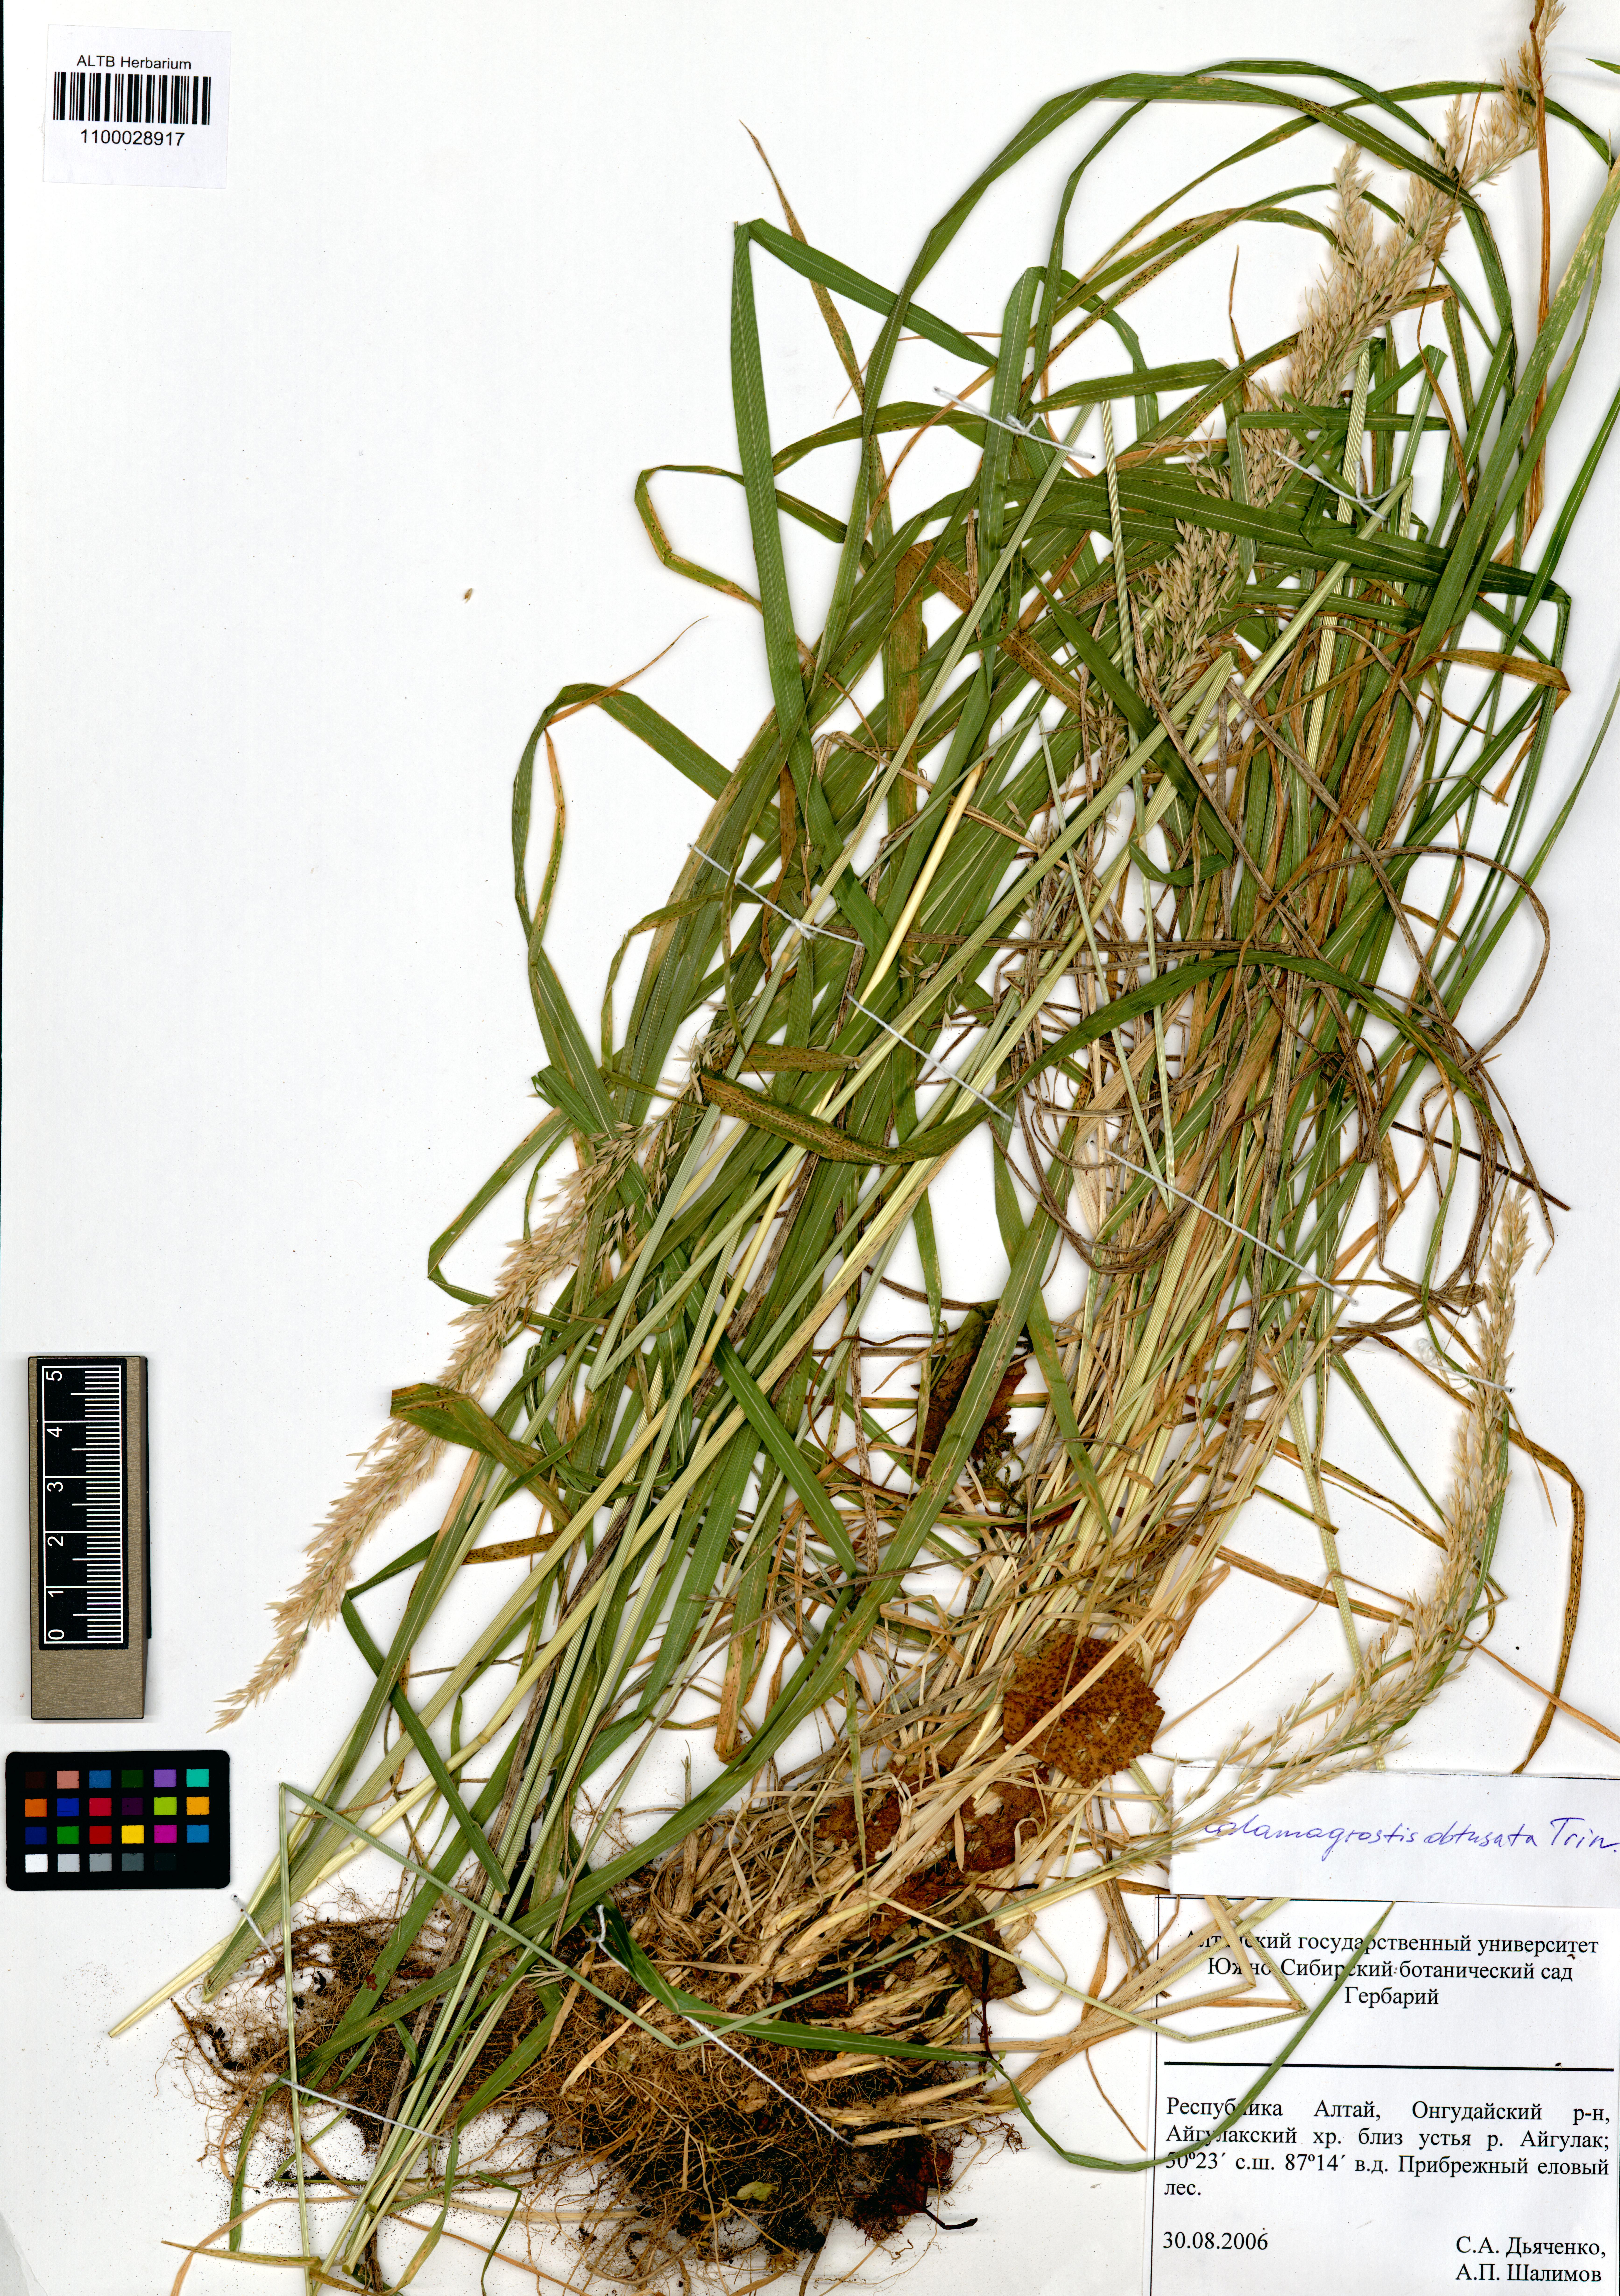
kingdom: Plantae
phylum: Tracheophyta
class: Liliopsida
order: Poales
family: Poaceae
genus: Calamagrostis
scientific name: Calamagrostis obtusata
